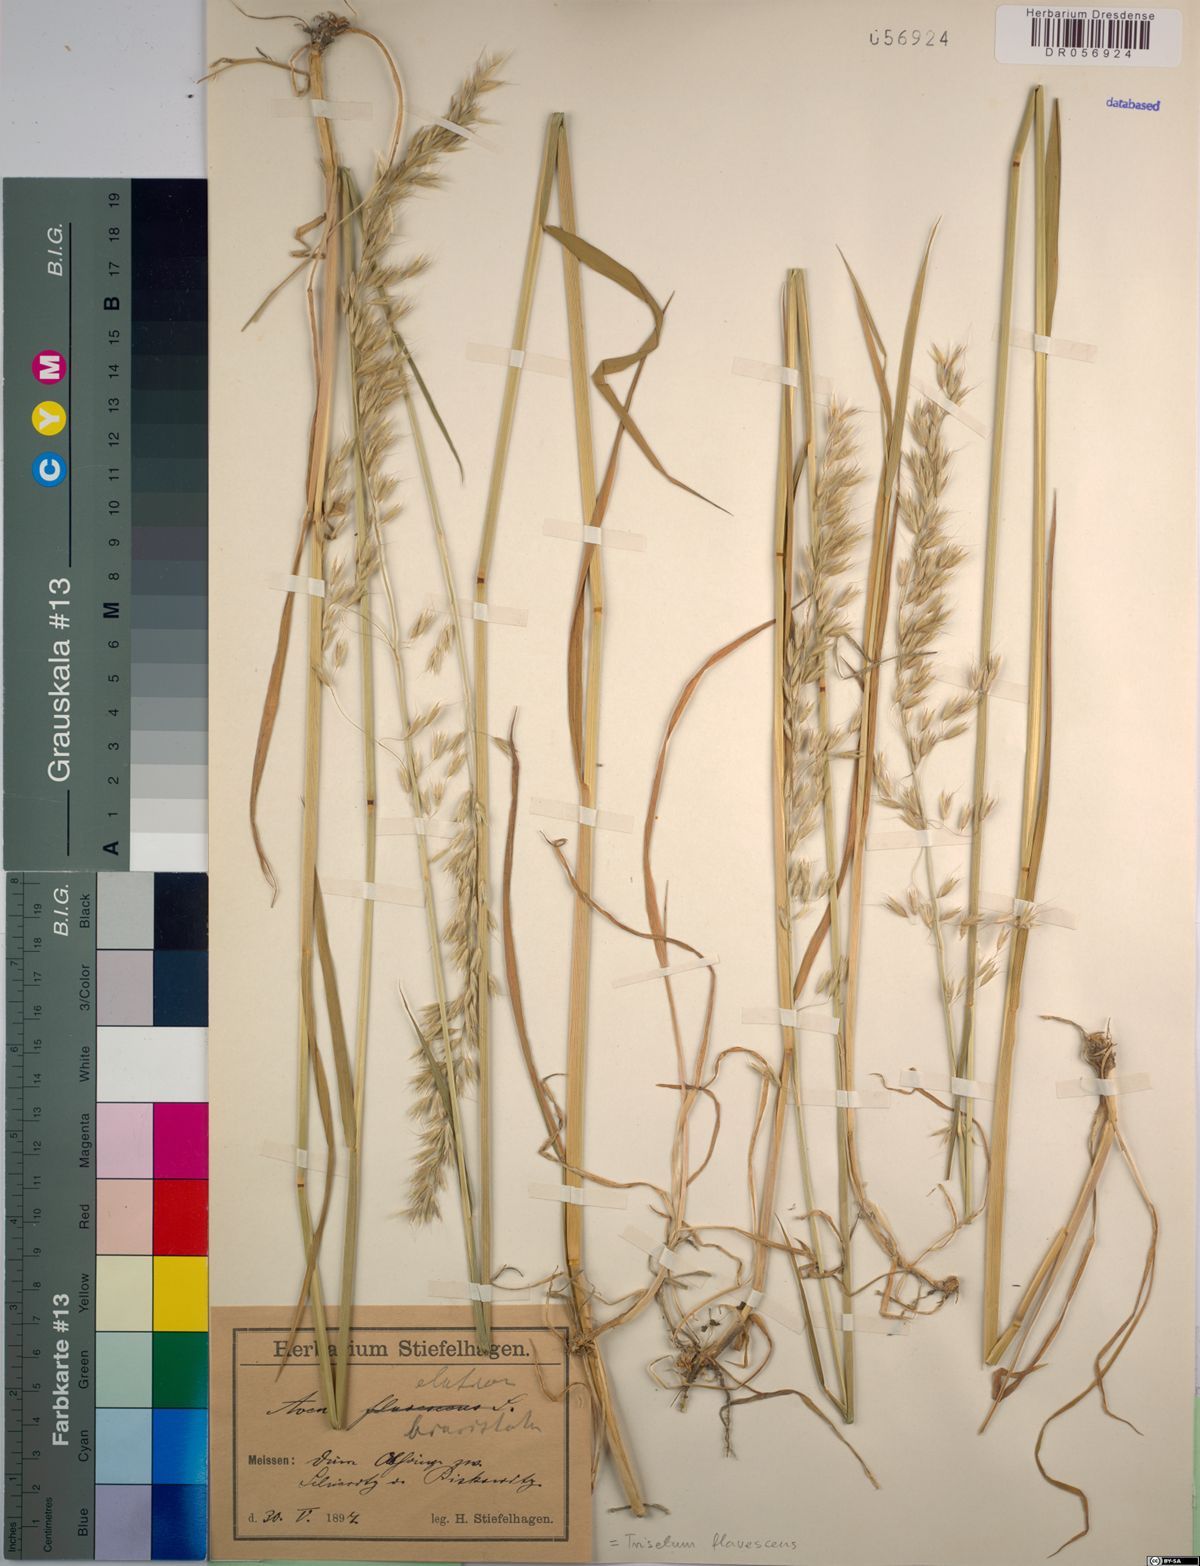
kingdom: Plantae
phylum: Tracheophyta
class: Liliopsida
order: Poales
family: Poaceae
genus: Trisetum
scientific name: Trisetum flavescens
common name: Yellow oat-grass
